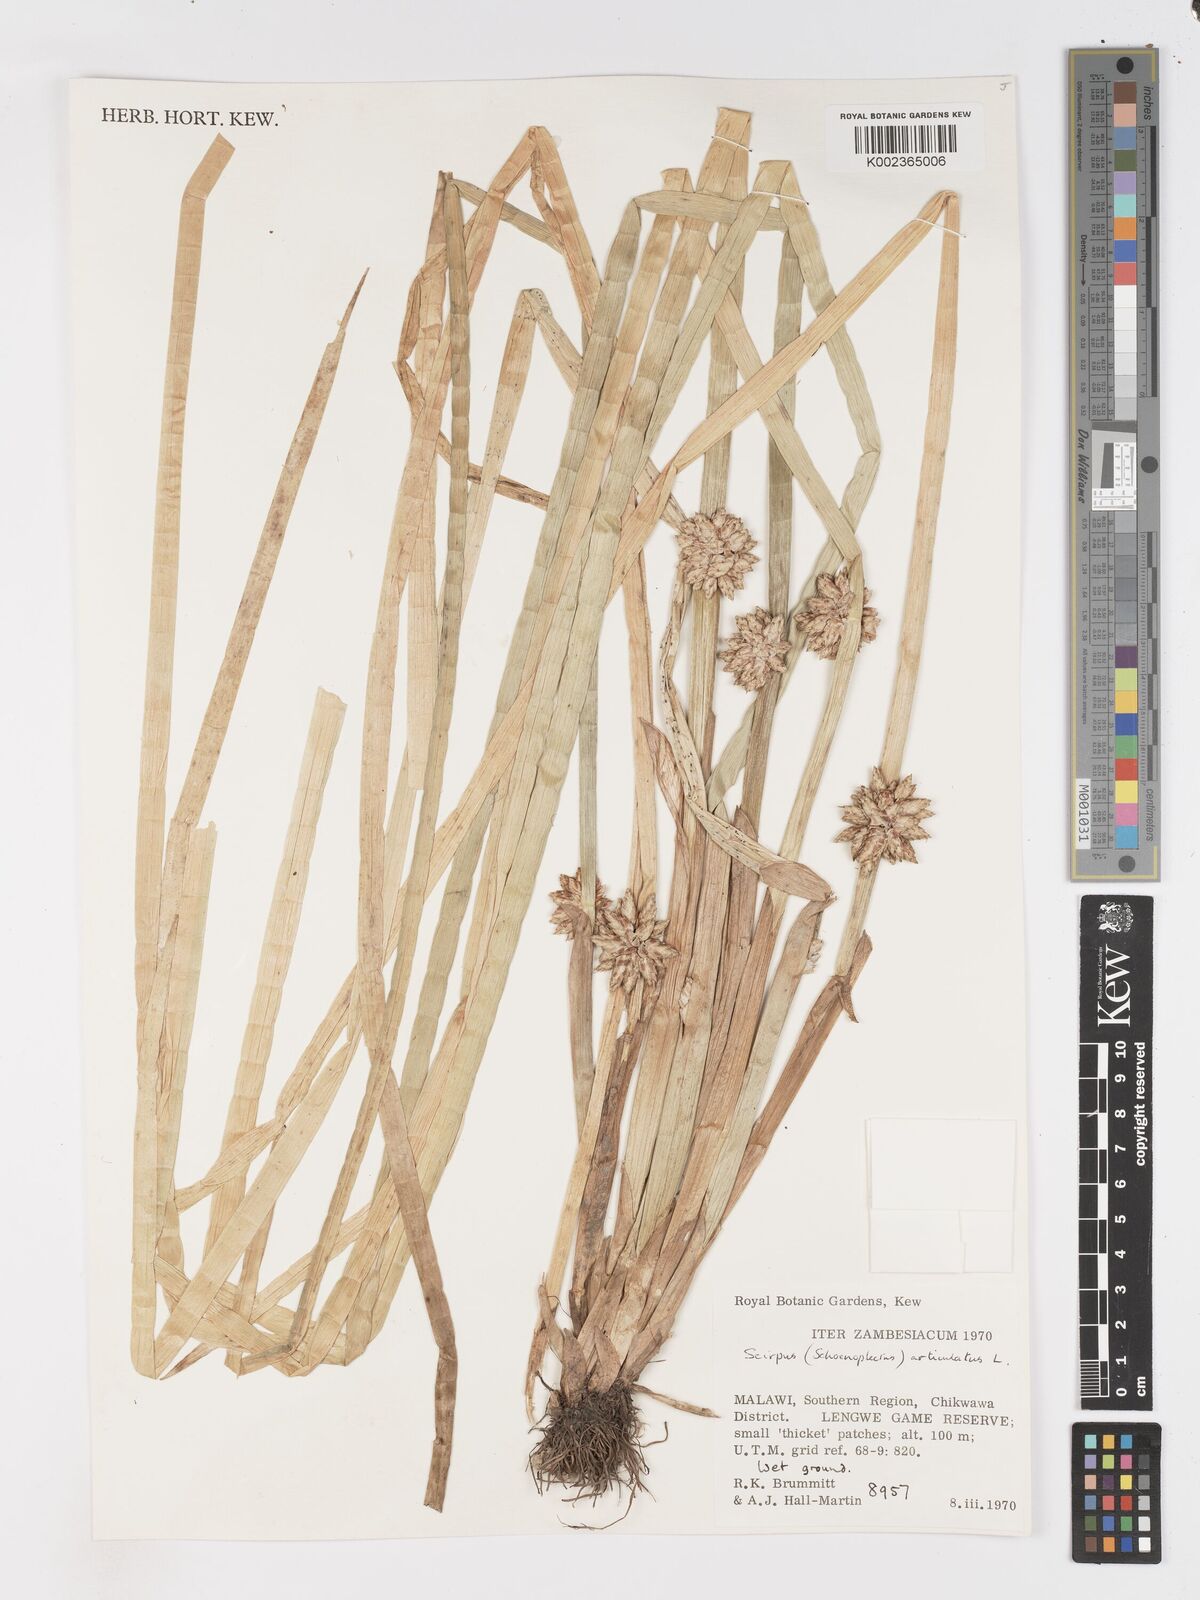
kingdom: Plantae
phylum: Tracheophyta
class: Liliopsida
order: Poales
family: Cyperaceae
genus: Schoenoplectiella
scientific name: Schoenoplectiella articulata
